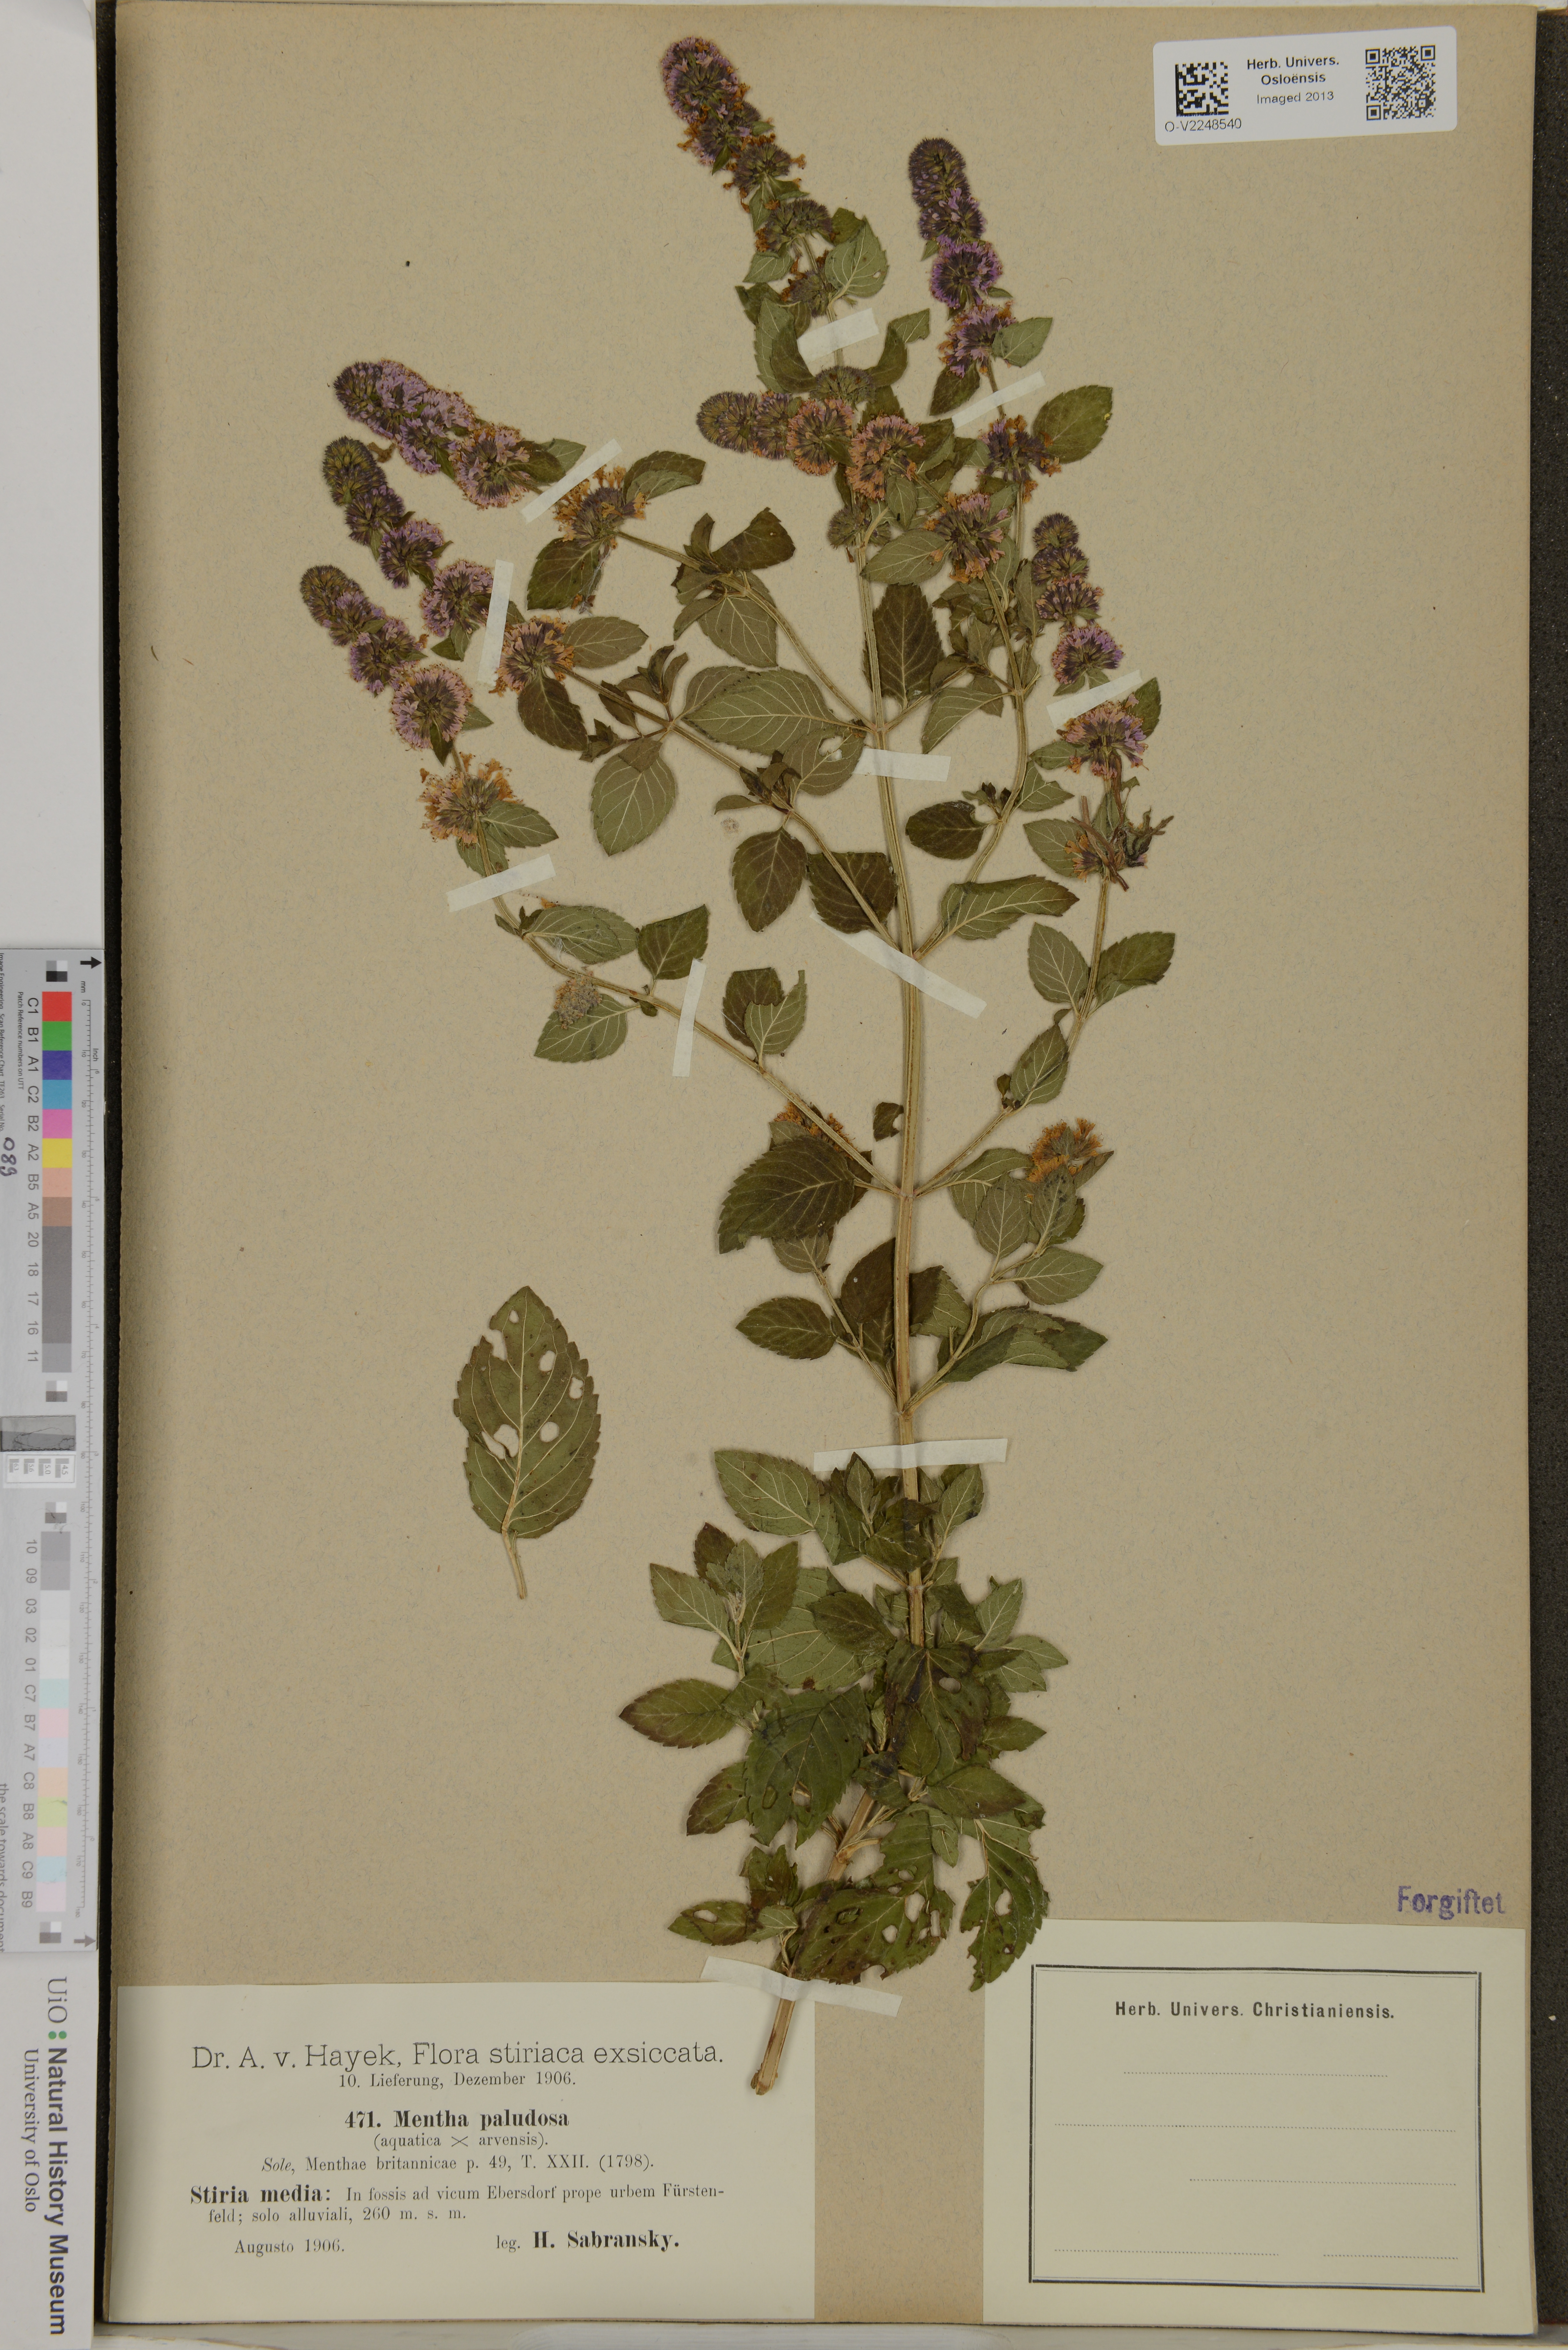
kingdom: Plantae
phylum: Tracheophyta
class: Magnoliopsida
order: Lamiales
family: Lamiaceae
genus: Mentha
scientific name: Mentha
